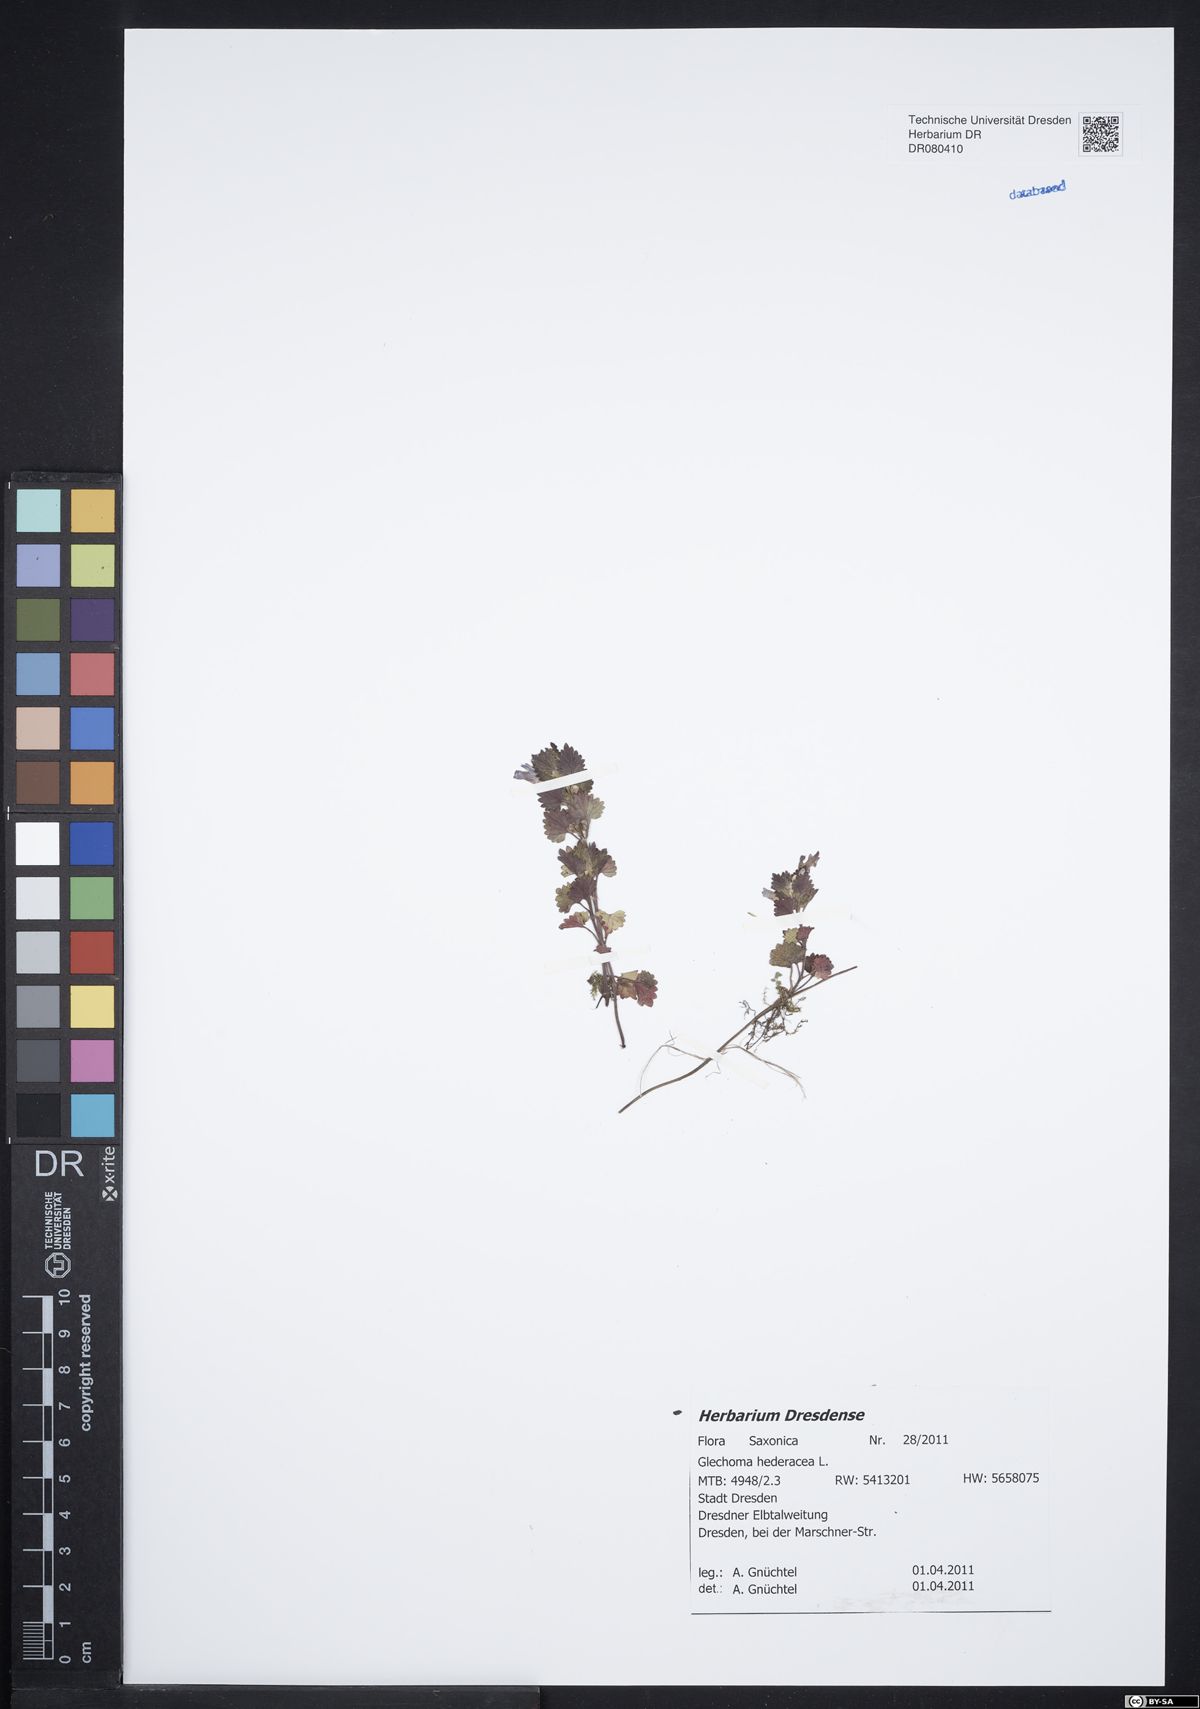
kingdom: Plantae
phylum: Tracheophyta
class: Magnoliopsida
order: Lamiales
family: Lamiaceae
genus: Glechoma
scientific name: Glechoma hederacea
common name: Ground ivy
